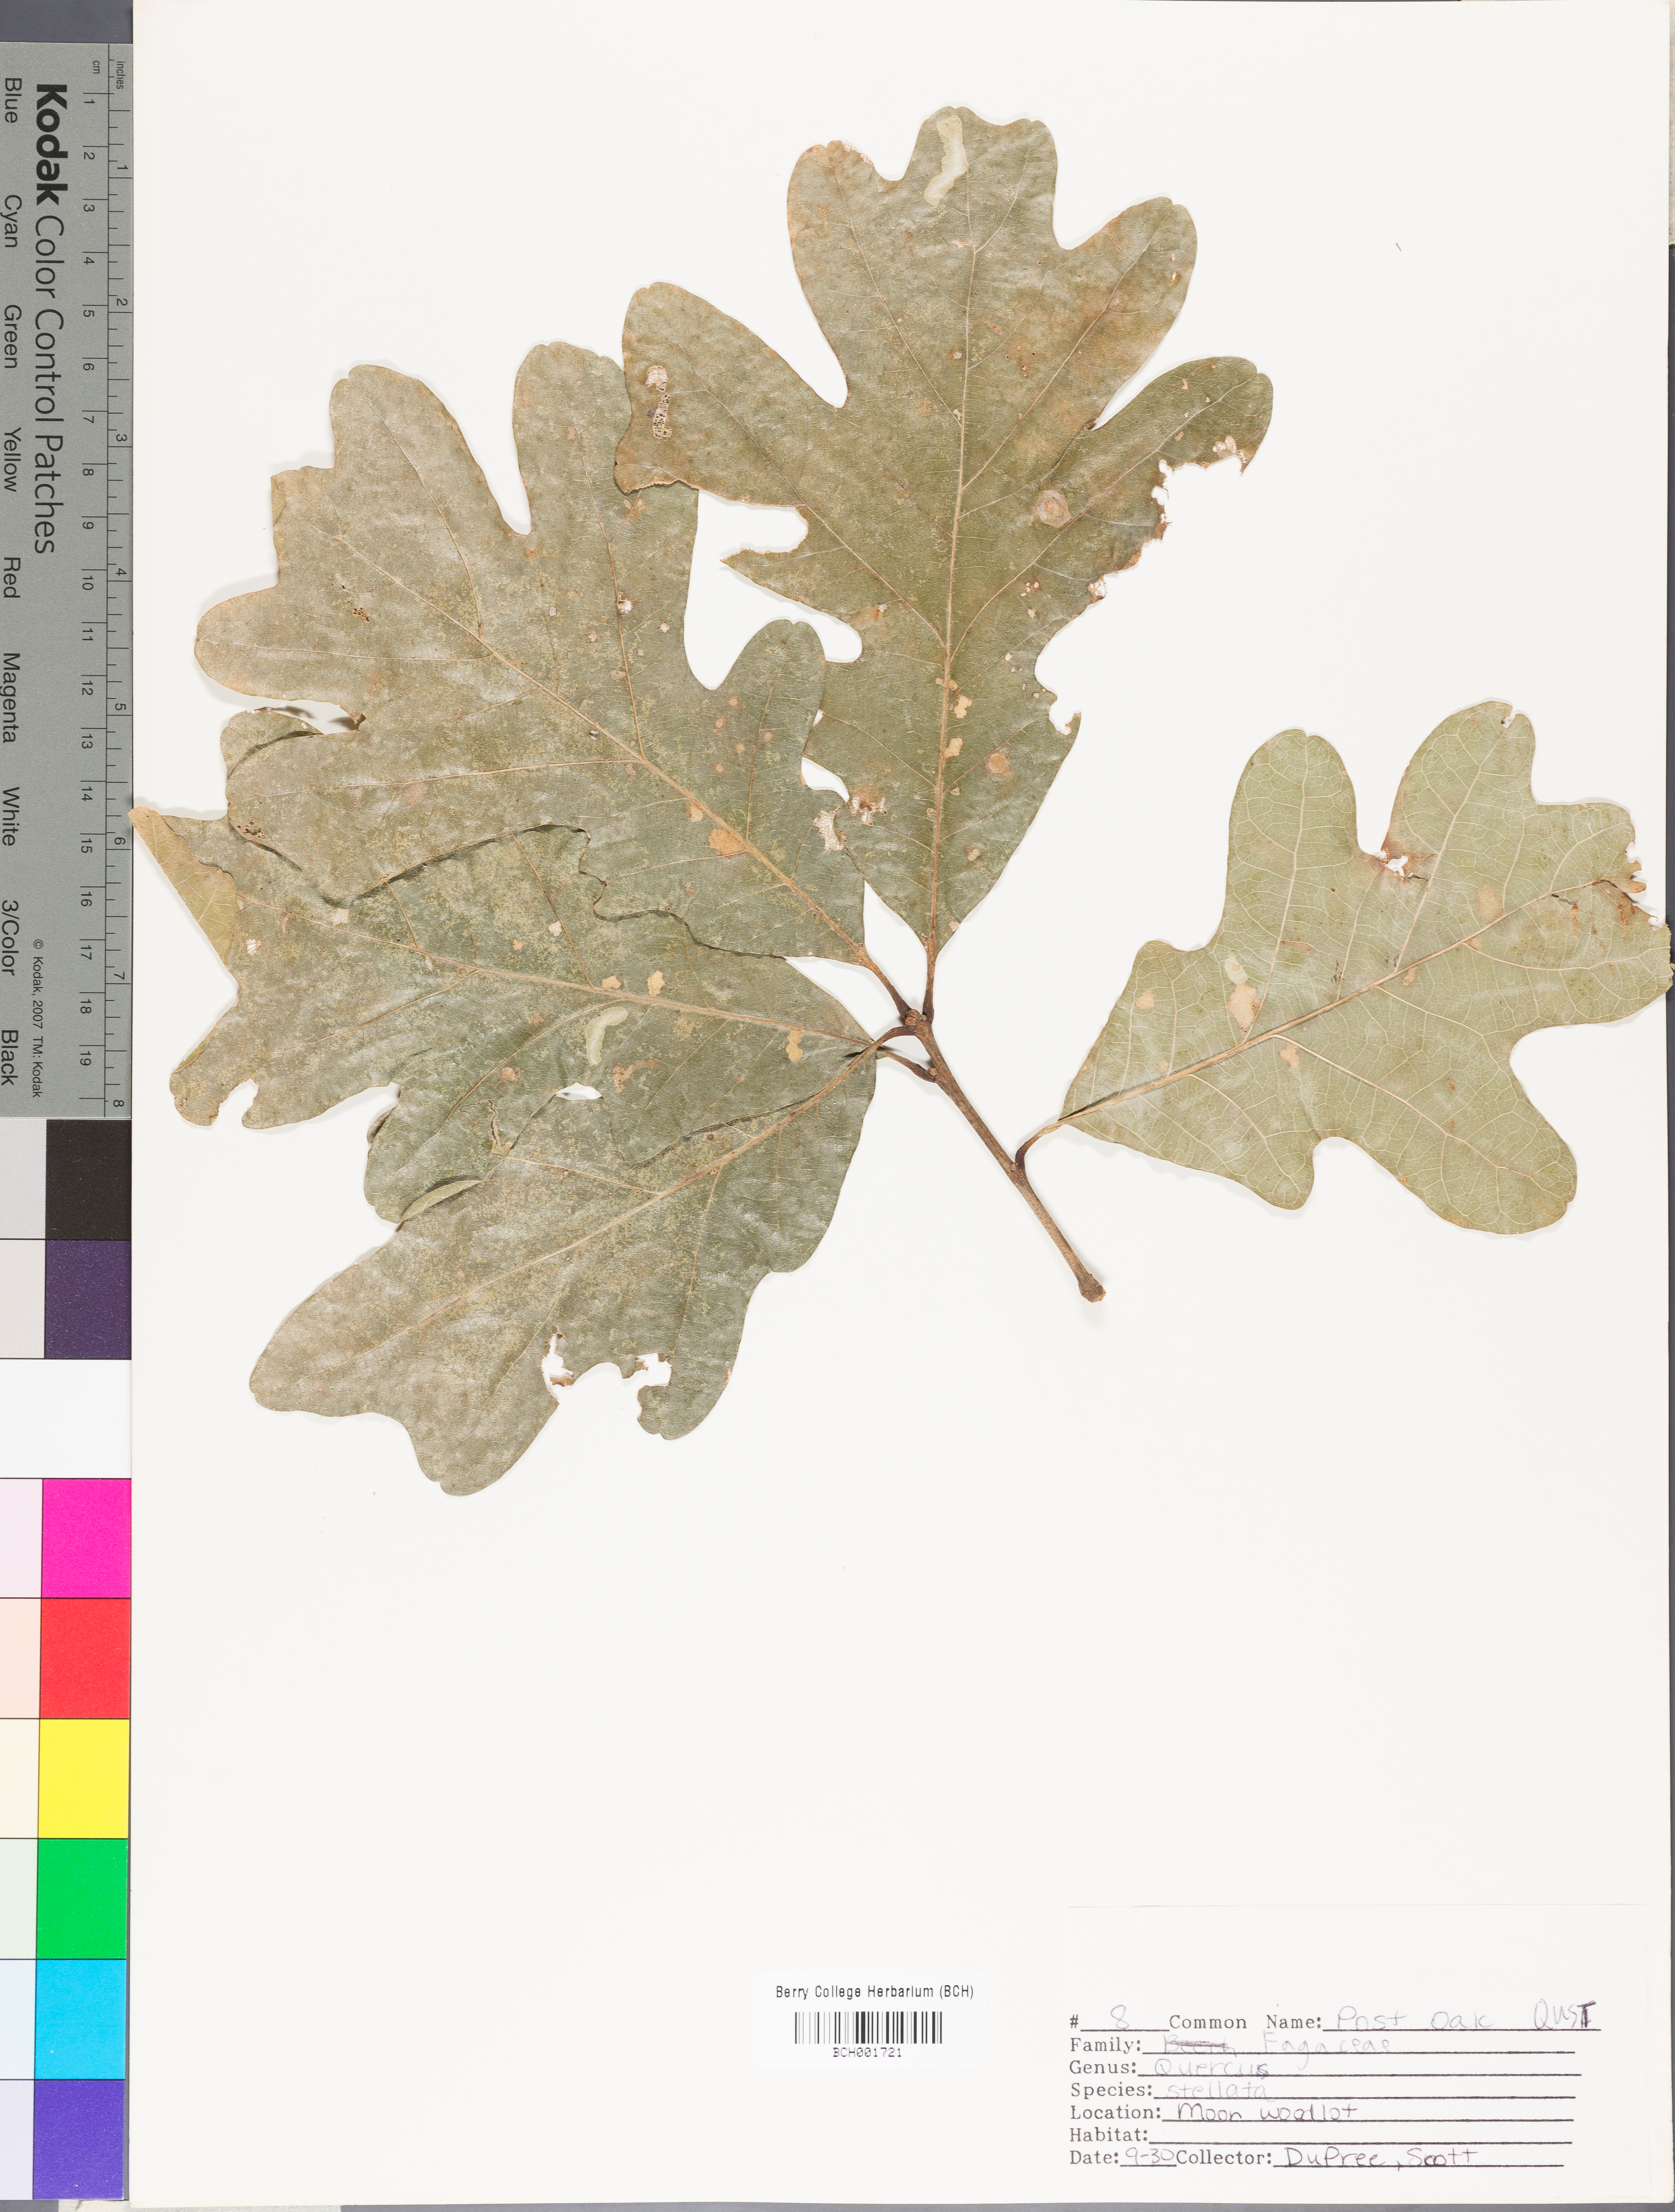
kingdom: Plantae
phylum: Tracheophyta
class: Magnoliopsida
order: Fagales
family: Fagaceae
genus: Quercus
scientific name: Quercus stellata
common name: Post oak
